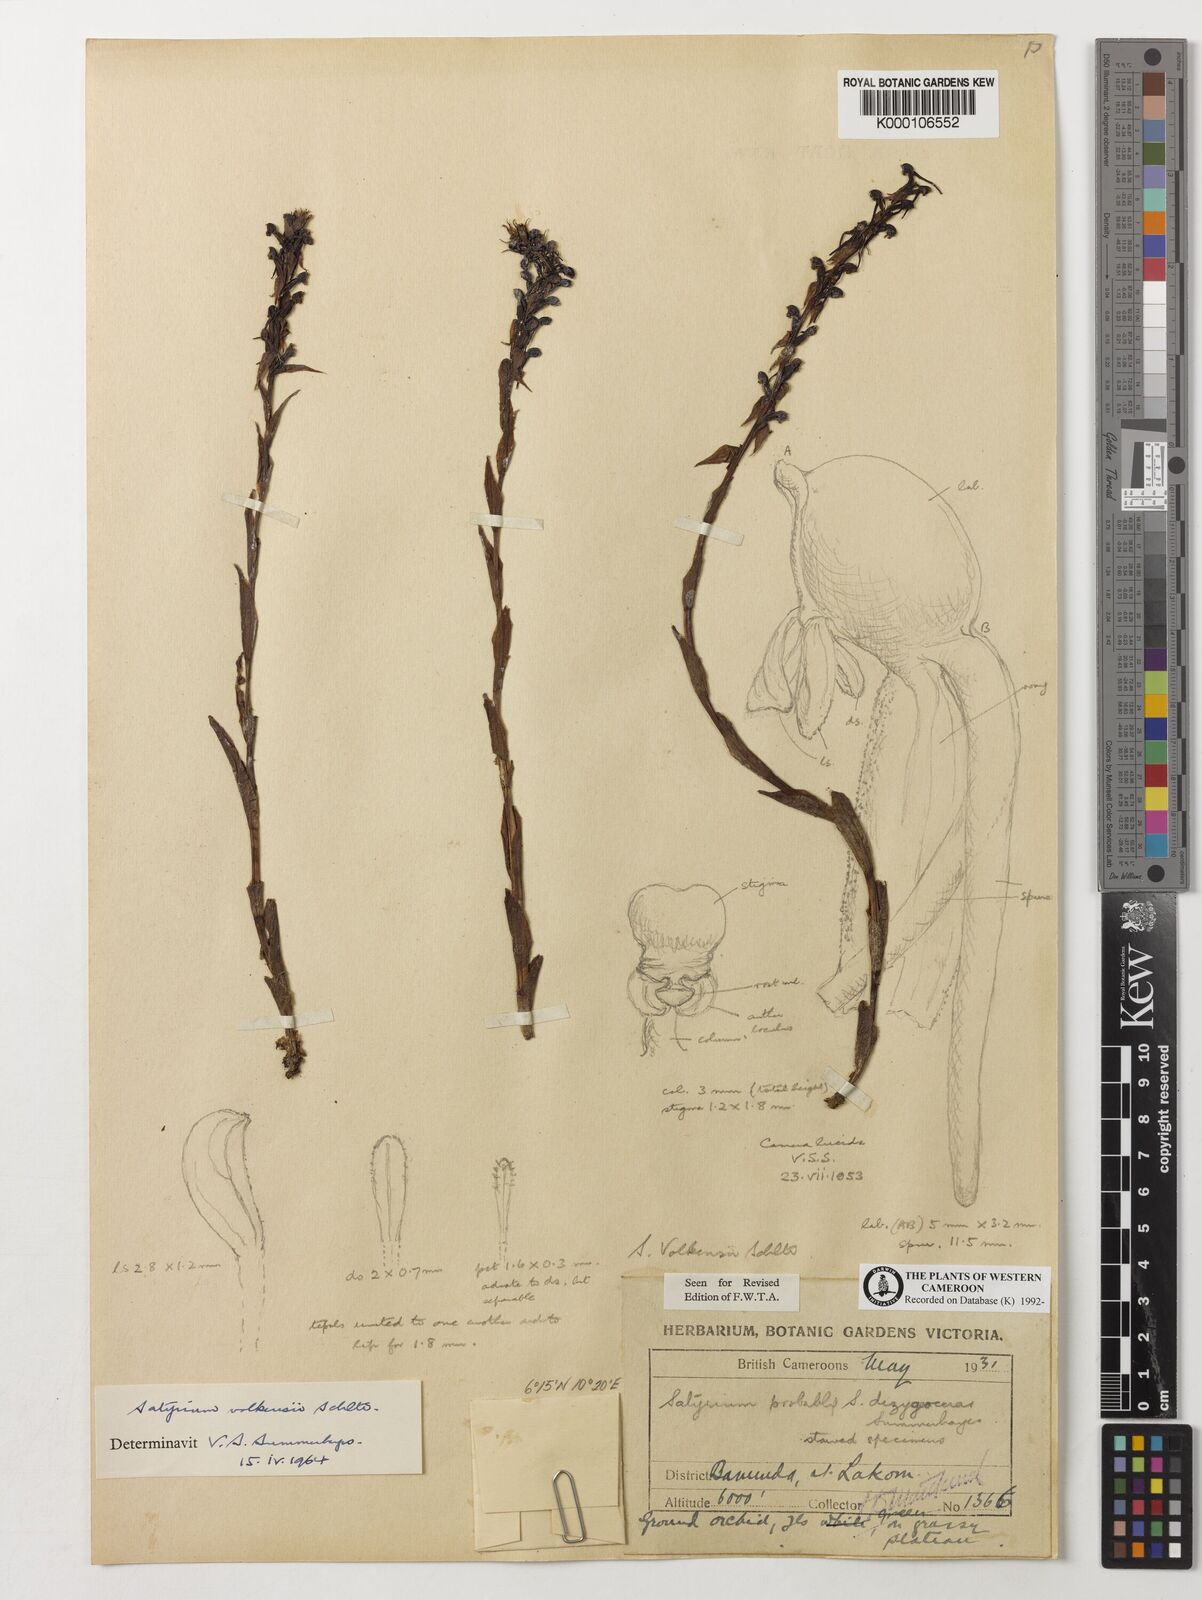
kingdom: Plantae
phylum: Tracheophyta
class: Liliopsida
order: Asparagales
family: Orchidaceae
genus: Satyrium
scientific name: Satyrium volkensii
